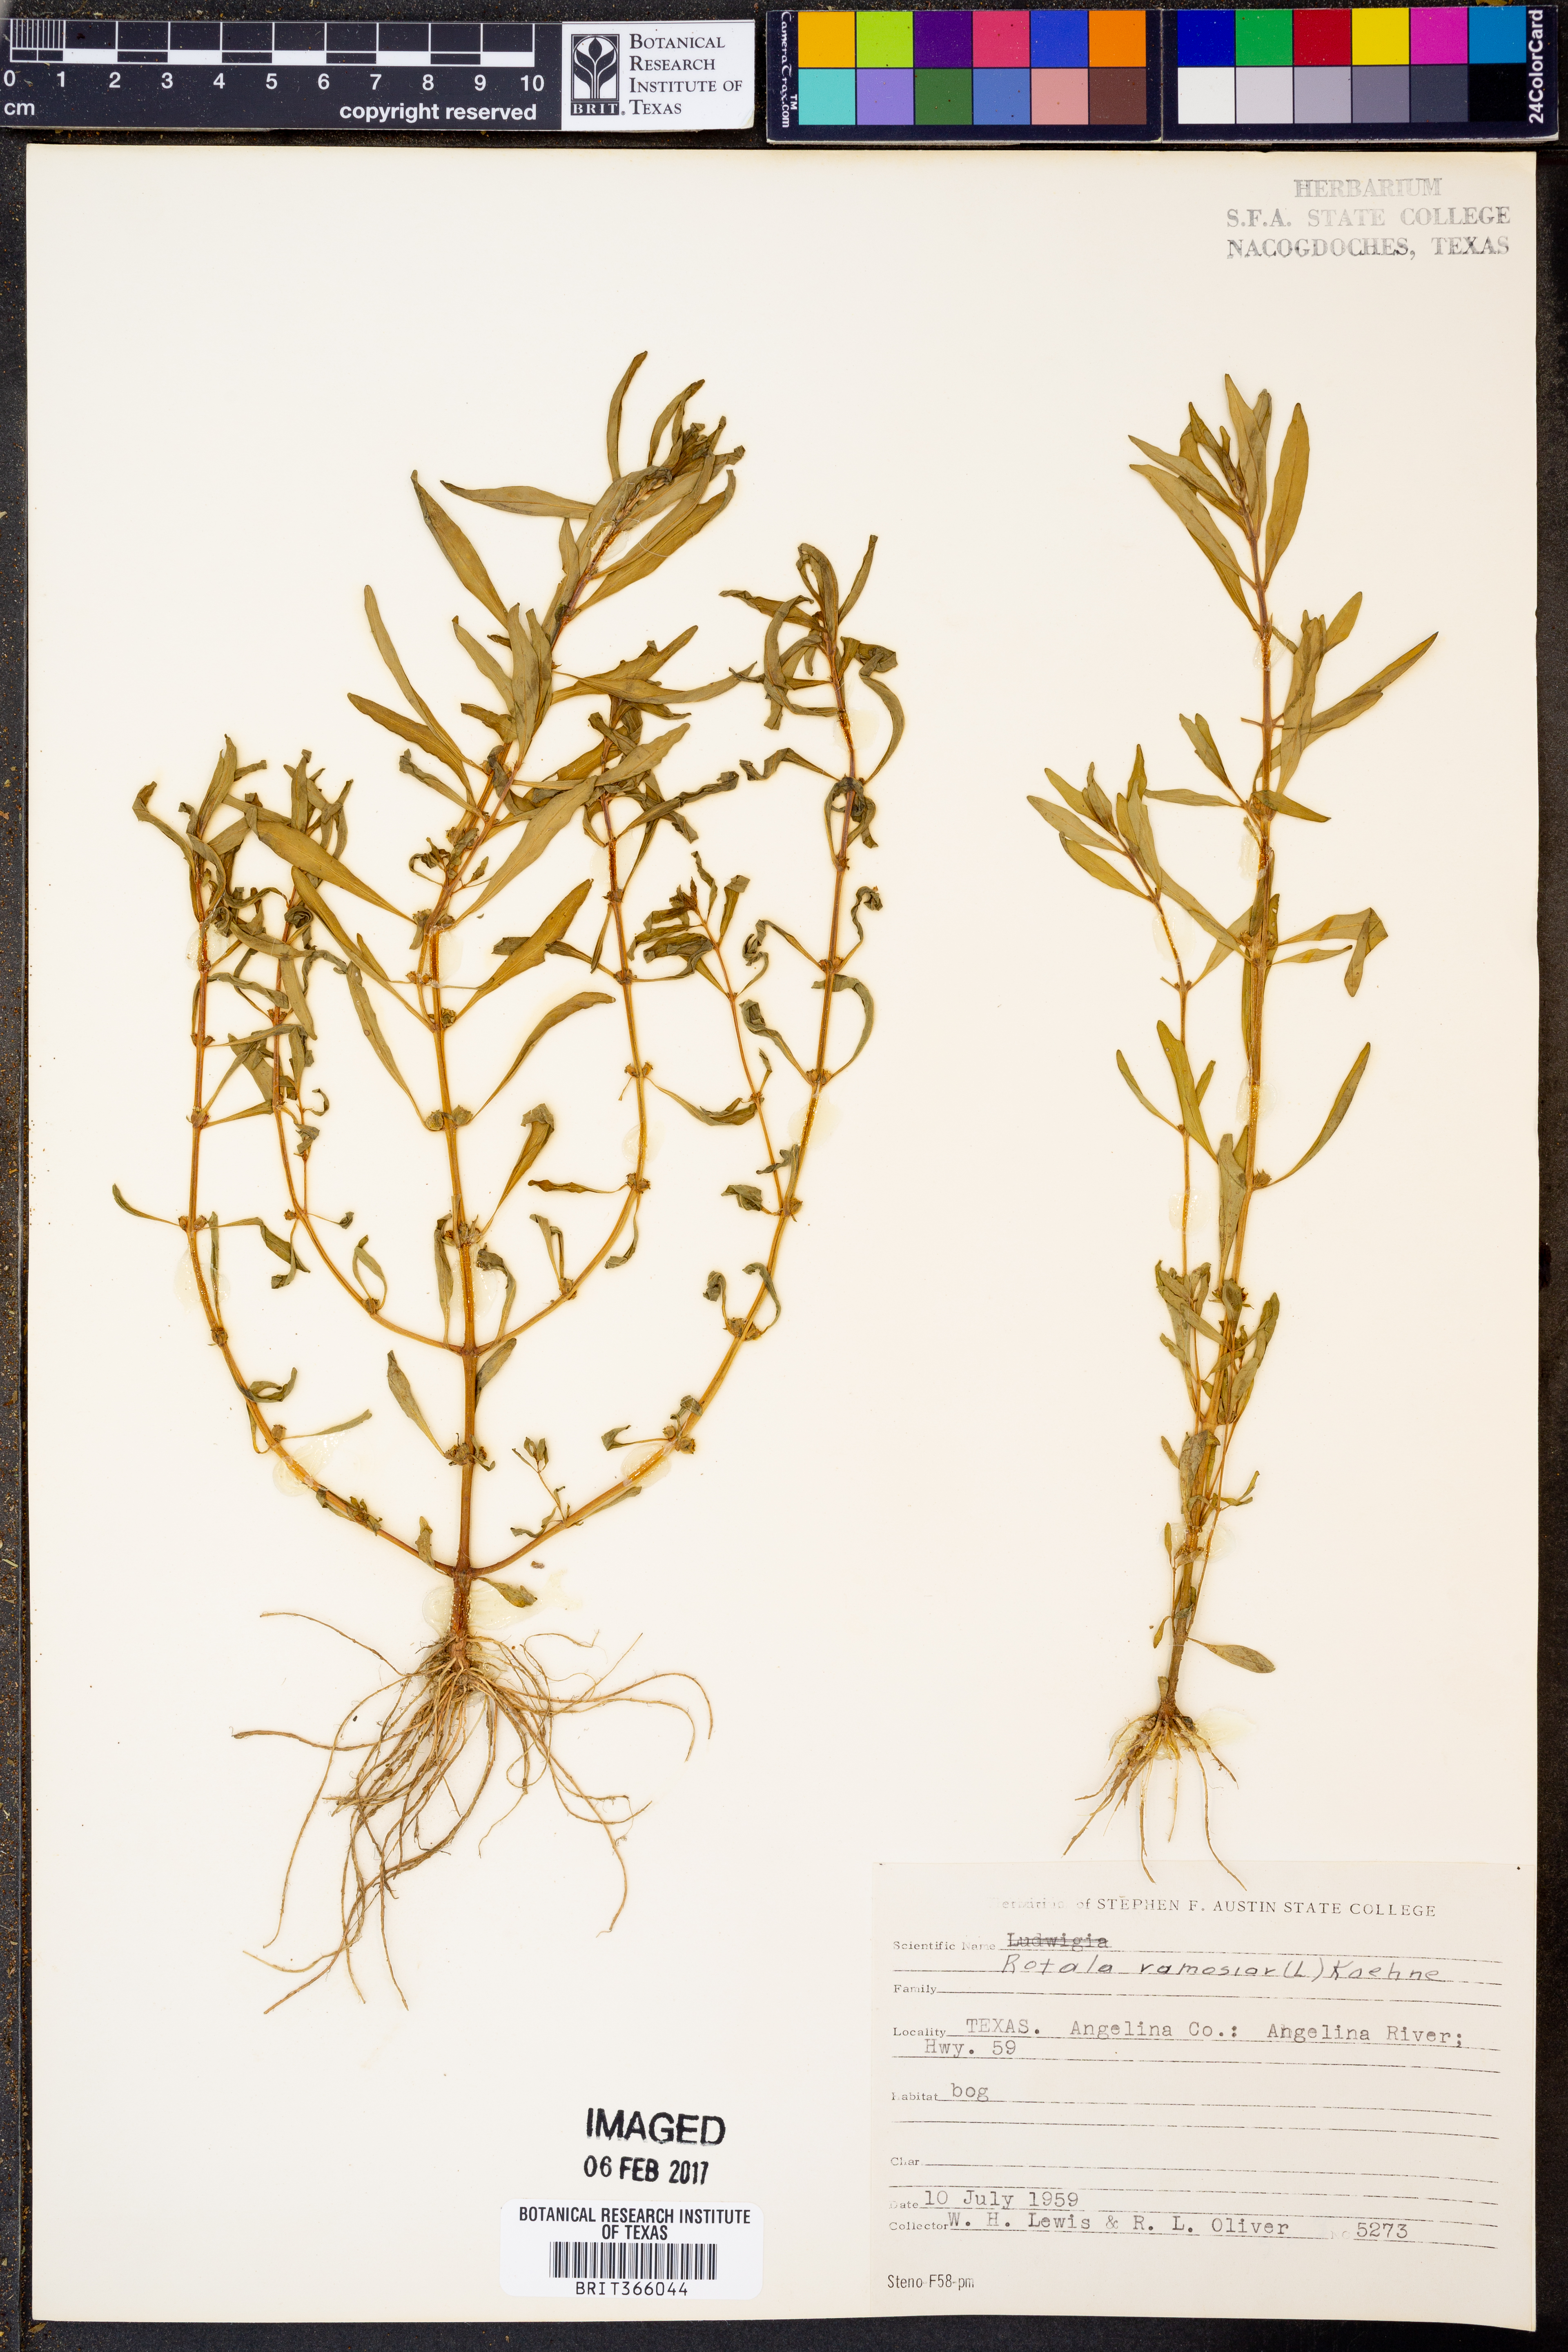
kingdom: Plantae
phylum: Tracheophyta
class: Magnoliopsida
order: Myrtales
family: Lythraceae
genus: Rotala
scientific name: Rotala ramosior
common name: Lowland rotala
